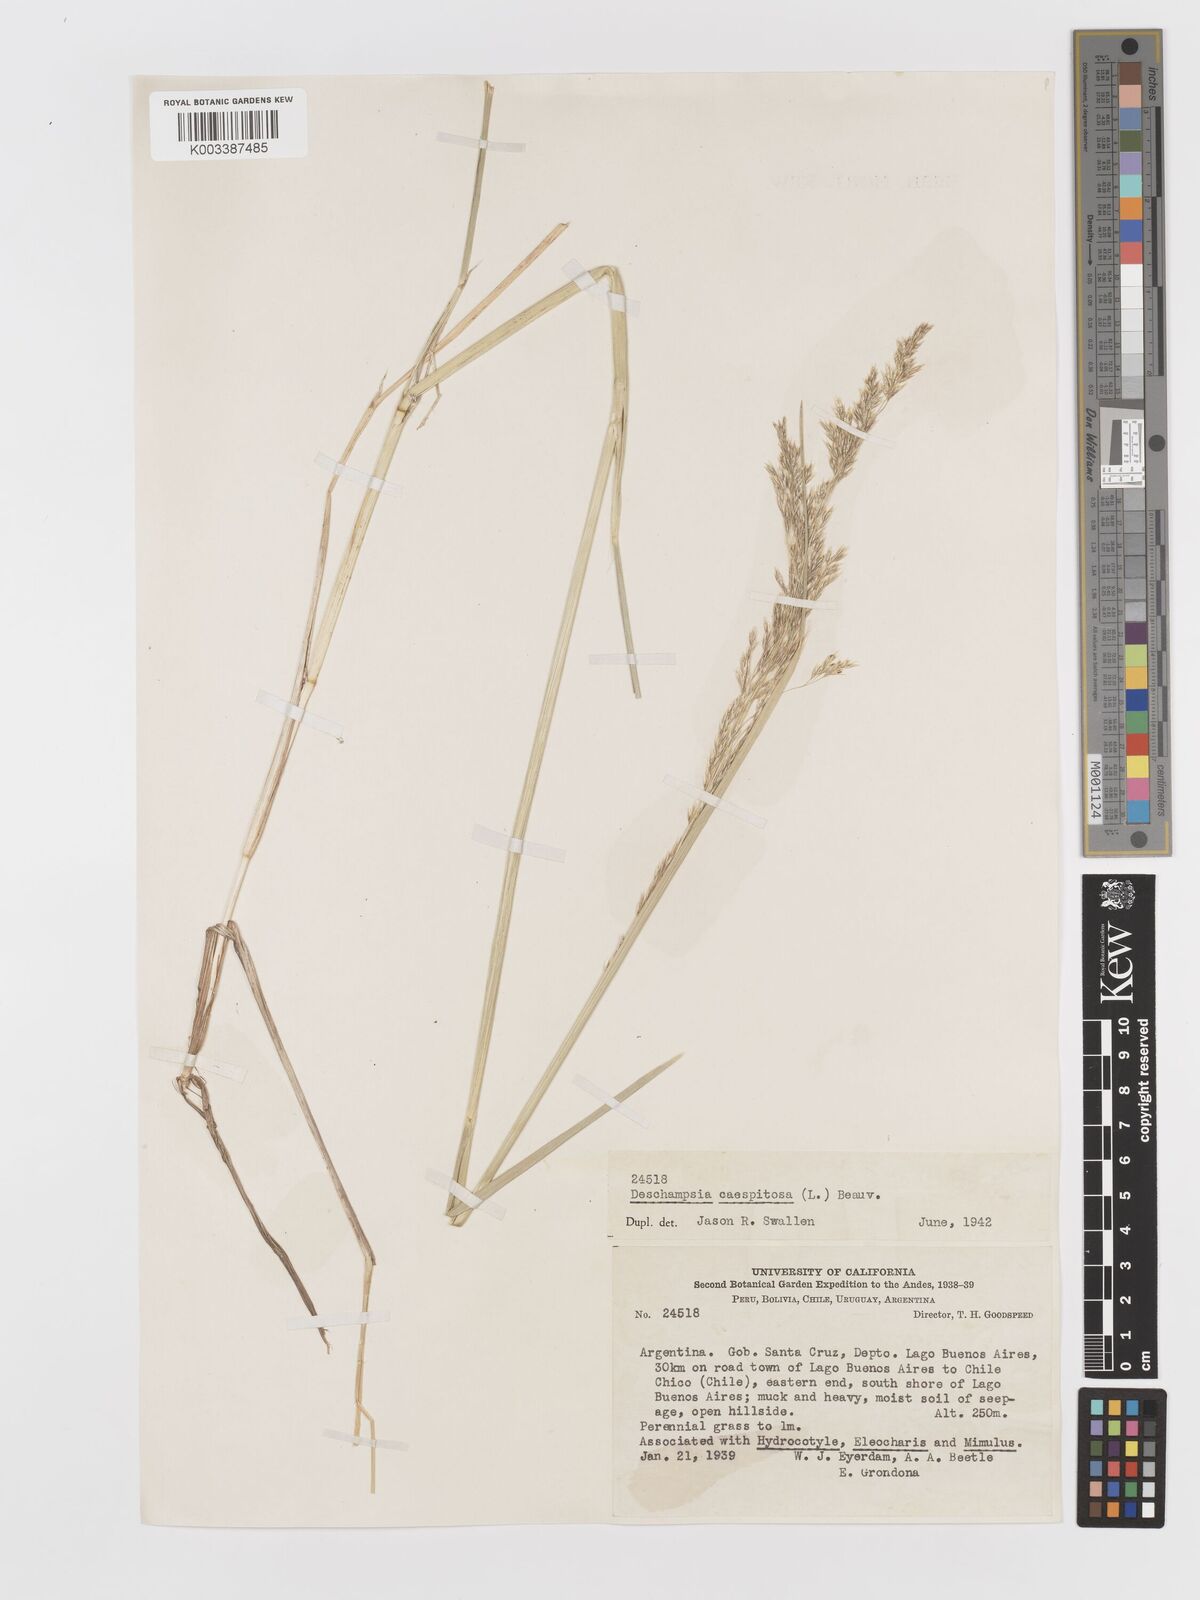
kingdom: Plantae
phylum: Tracheophyta
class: Liliopsida
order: Poales
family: Poaceae
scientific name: Poaceae
